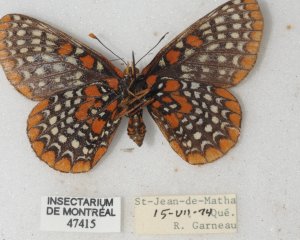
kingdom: Animalia
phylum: Arthropoda
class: Insecta
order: Lepidoptera
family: Nymphalidae
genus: Euphydryas
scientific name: Euphydryas phaeton
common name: Baltimore Checkerspot
